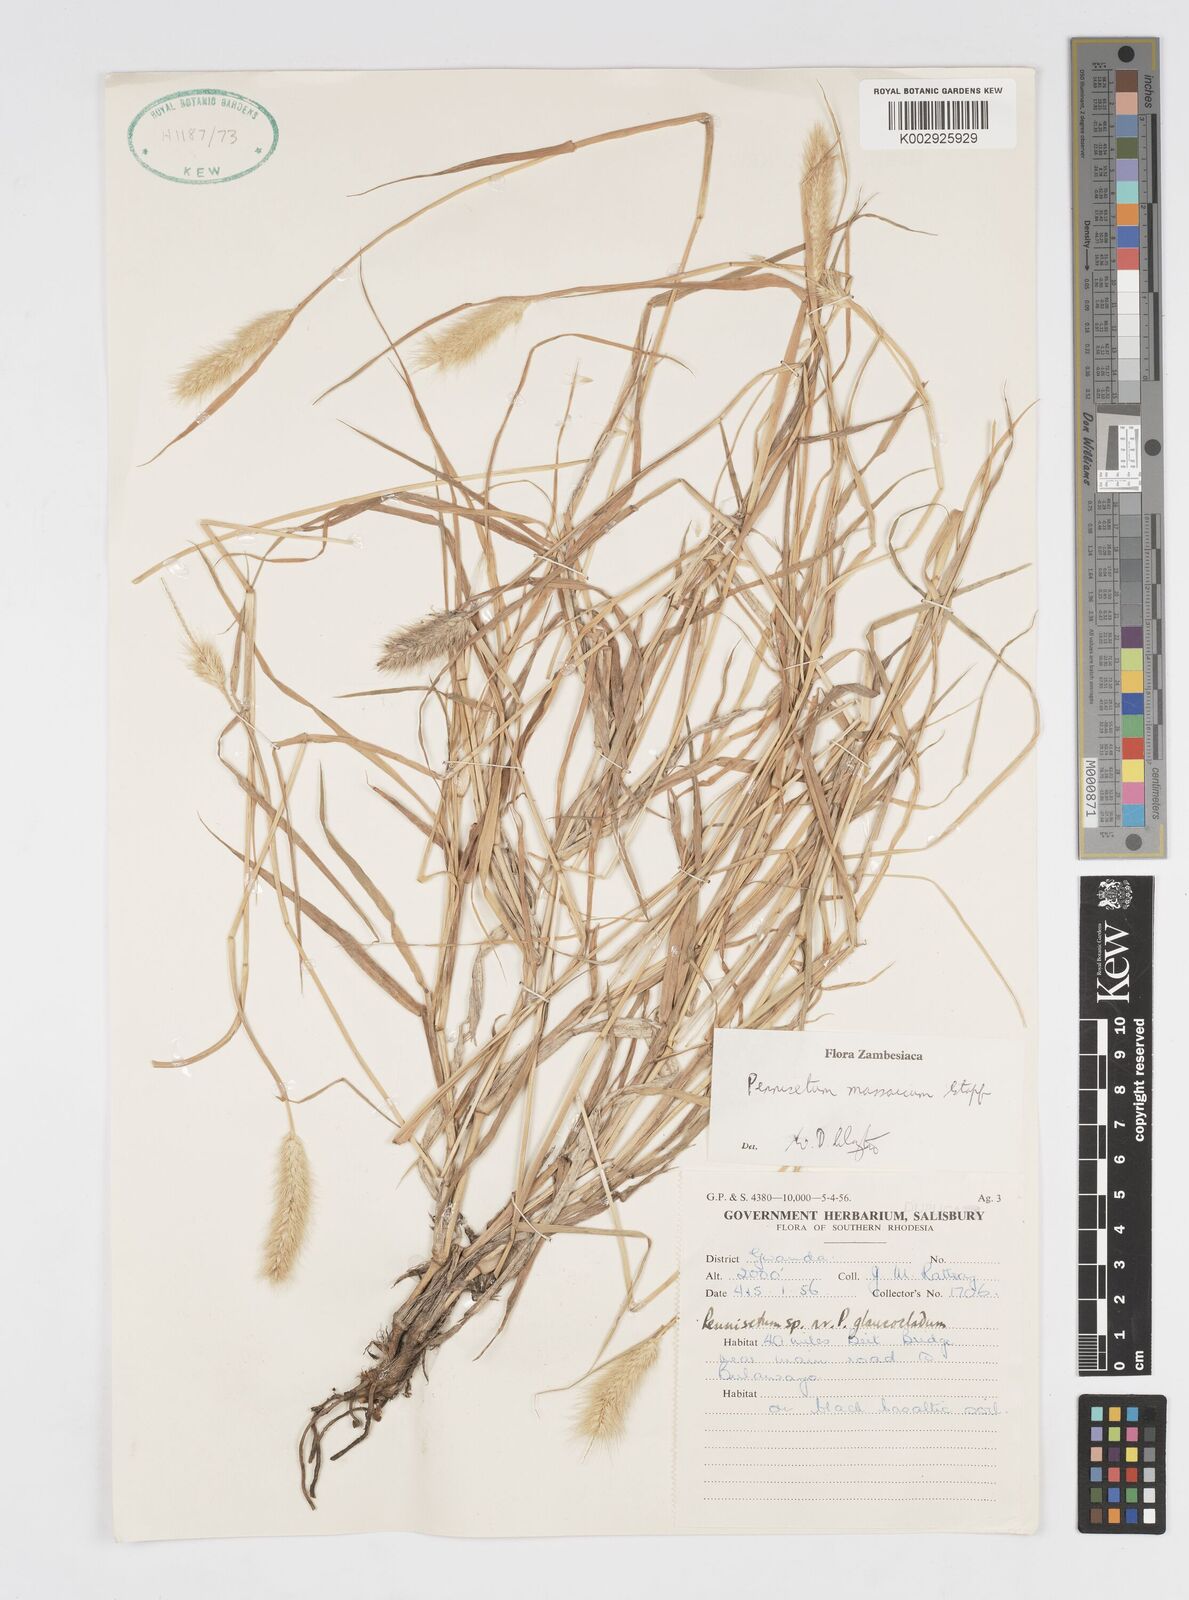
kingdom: Plantae
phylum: Tracheophyta
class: Liliopsida
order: Poales
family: Poaceae
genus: Cenchrus
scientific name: Cenchrus massaicus
